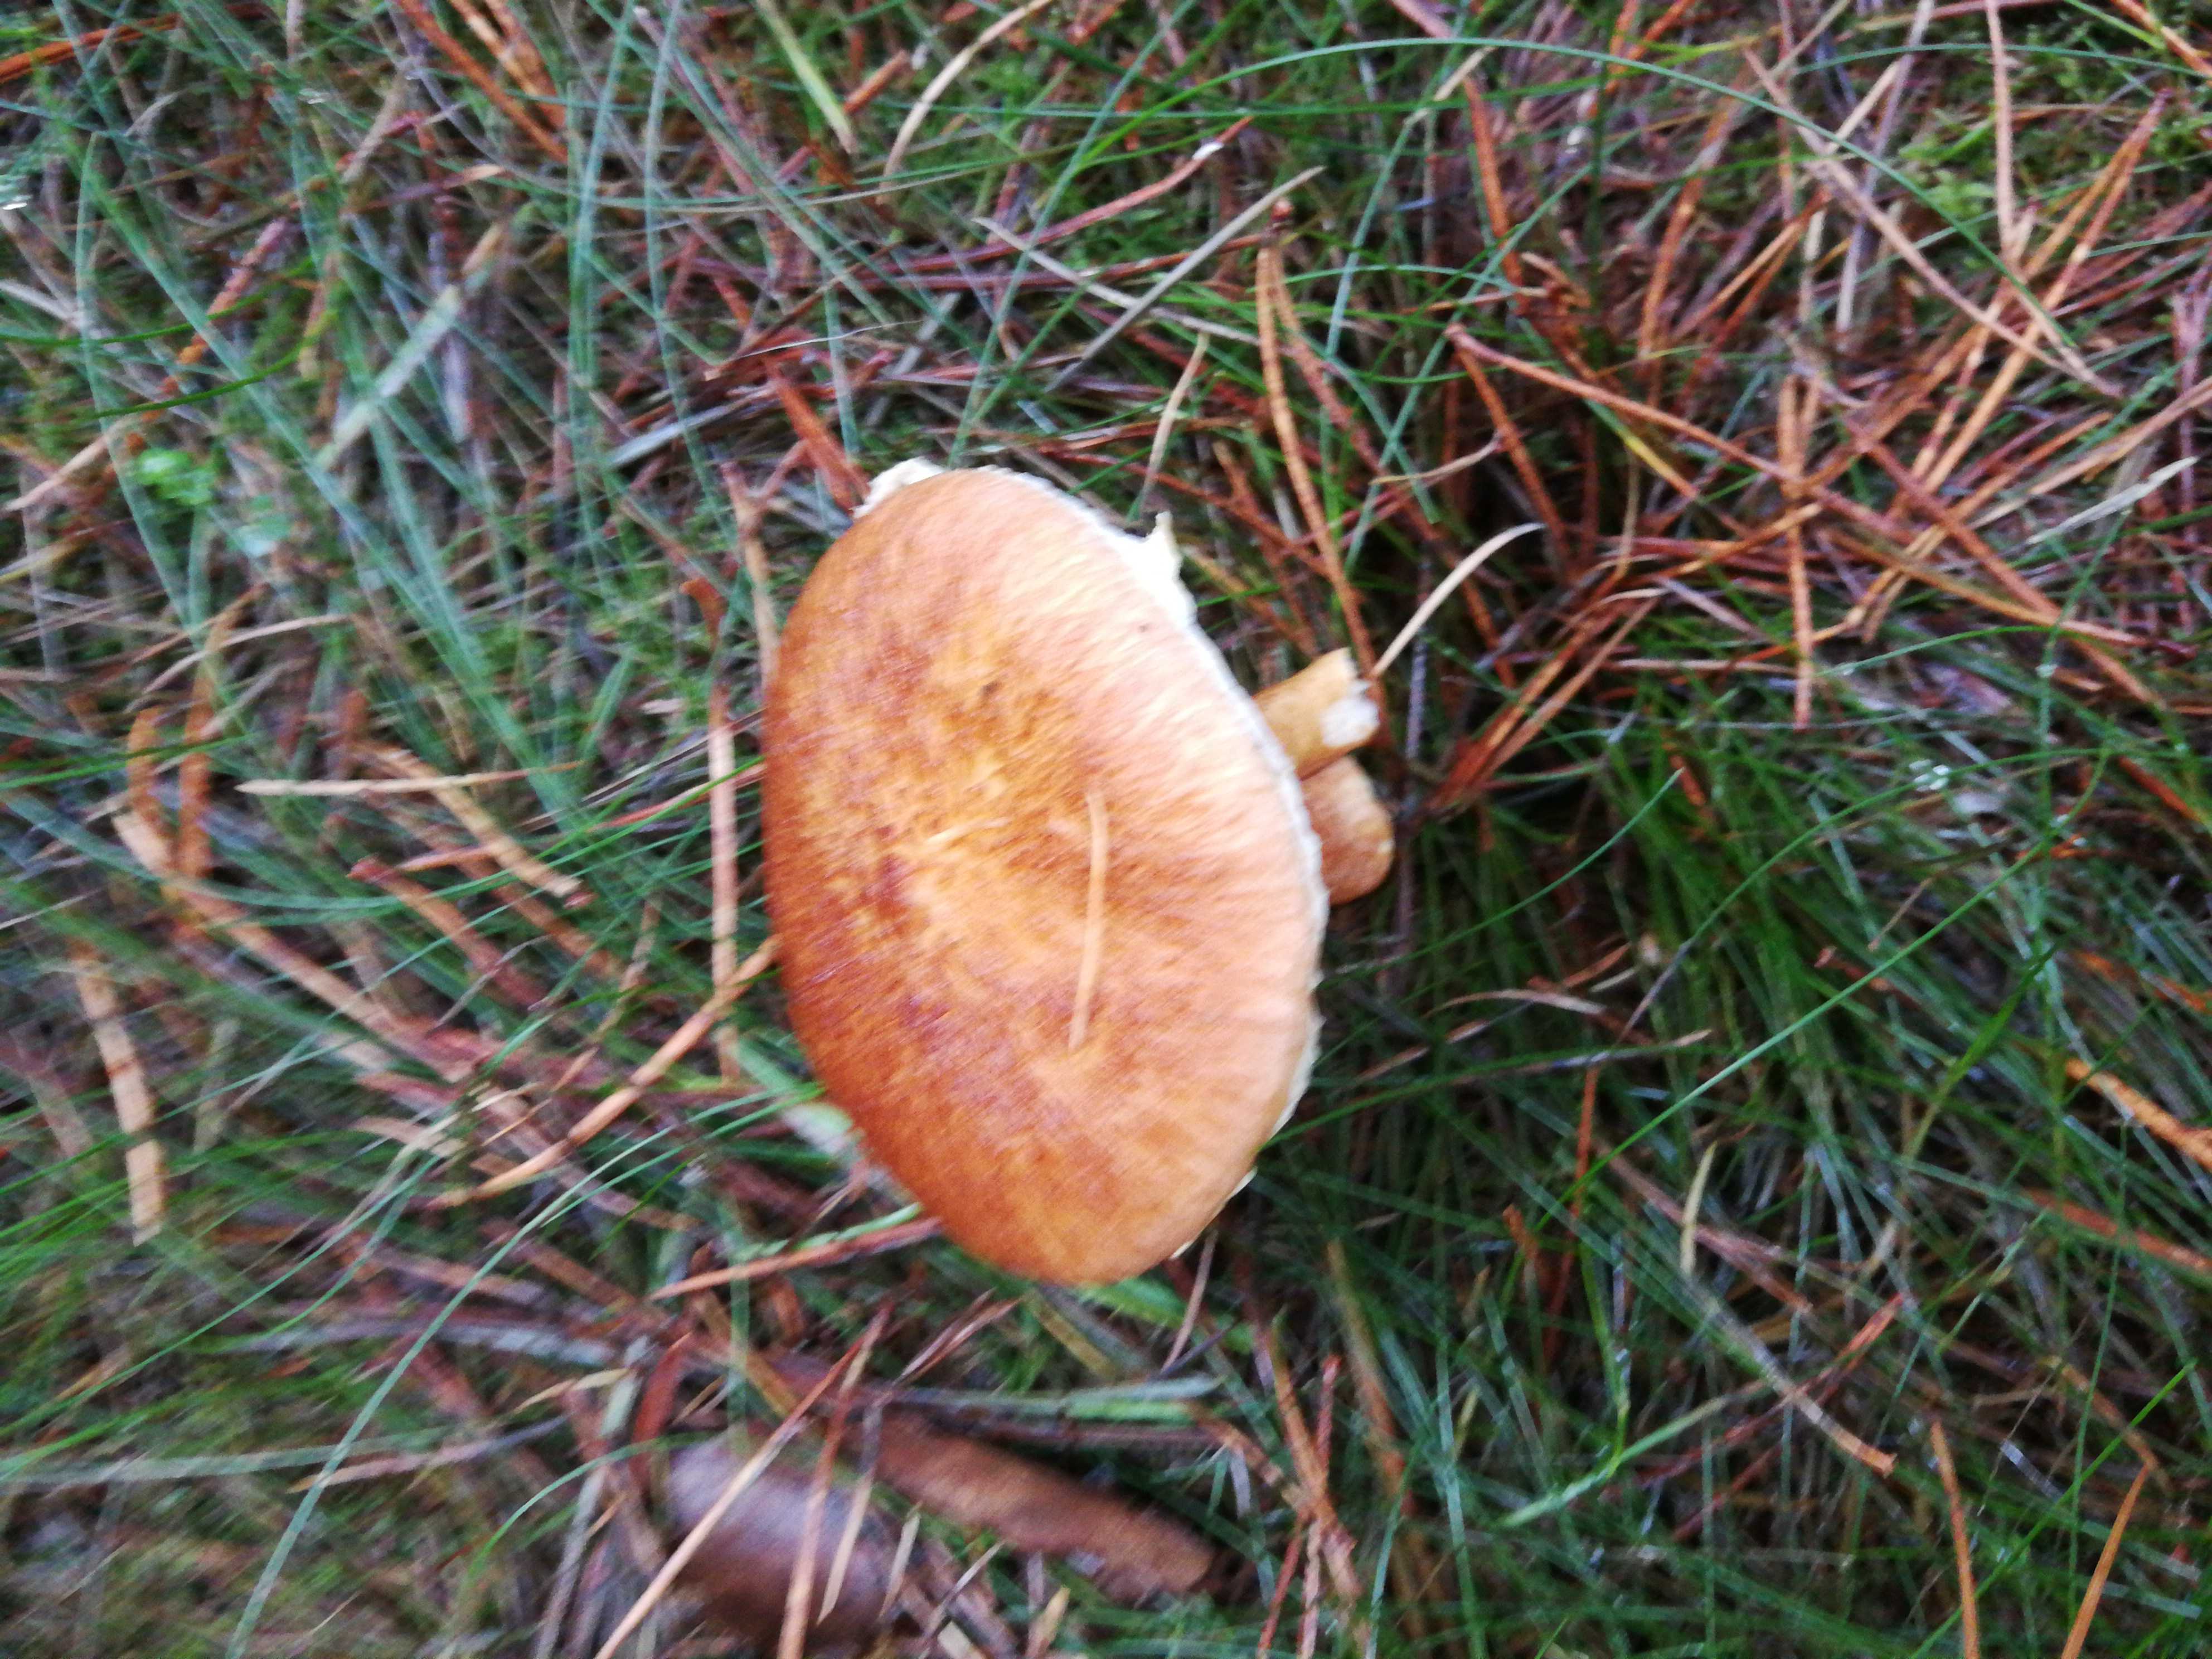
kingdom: Fungi
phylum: Basidiomycota
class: Agaricomycetes
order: Boletales
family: Suillaceae
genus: Suillus
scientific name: Suillus cavipes
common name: hulstokket slimrørhat
